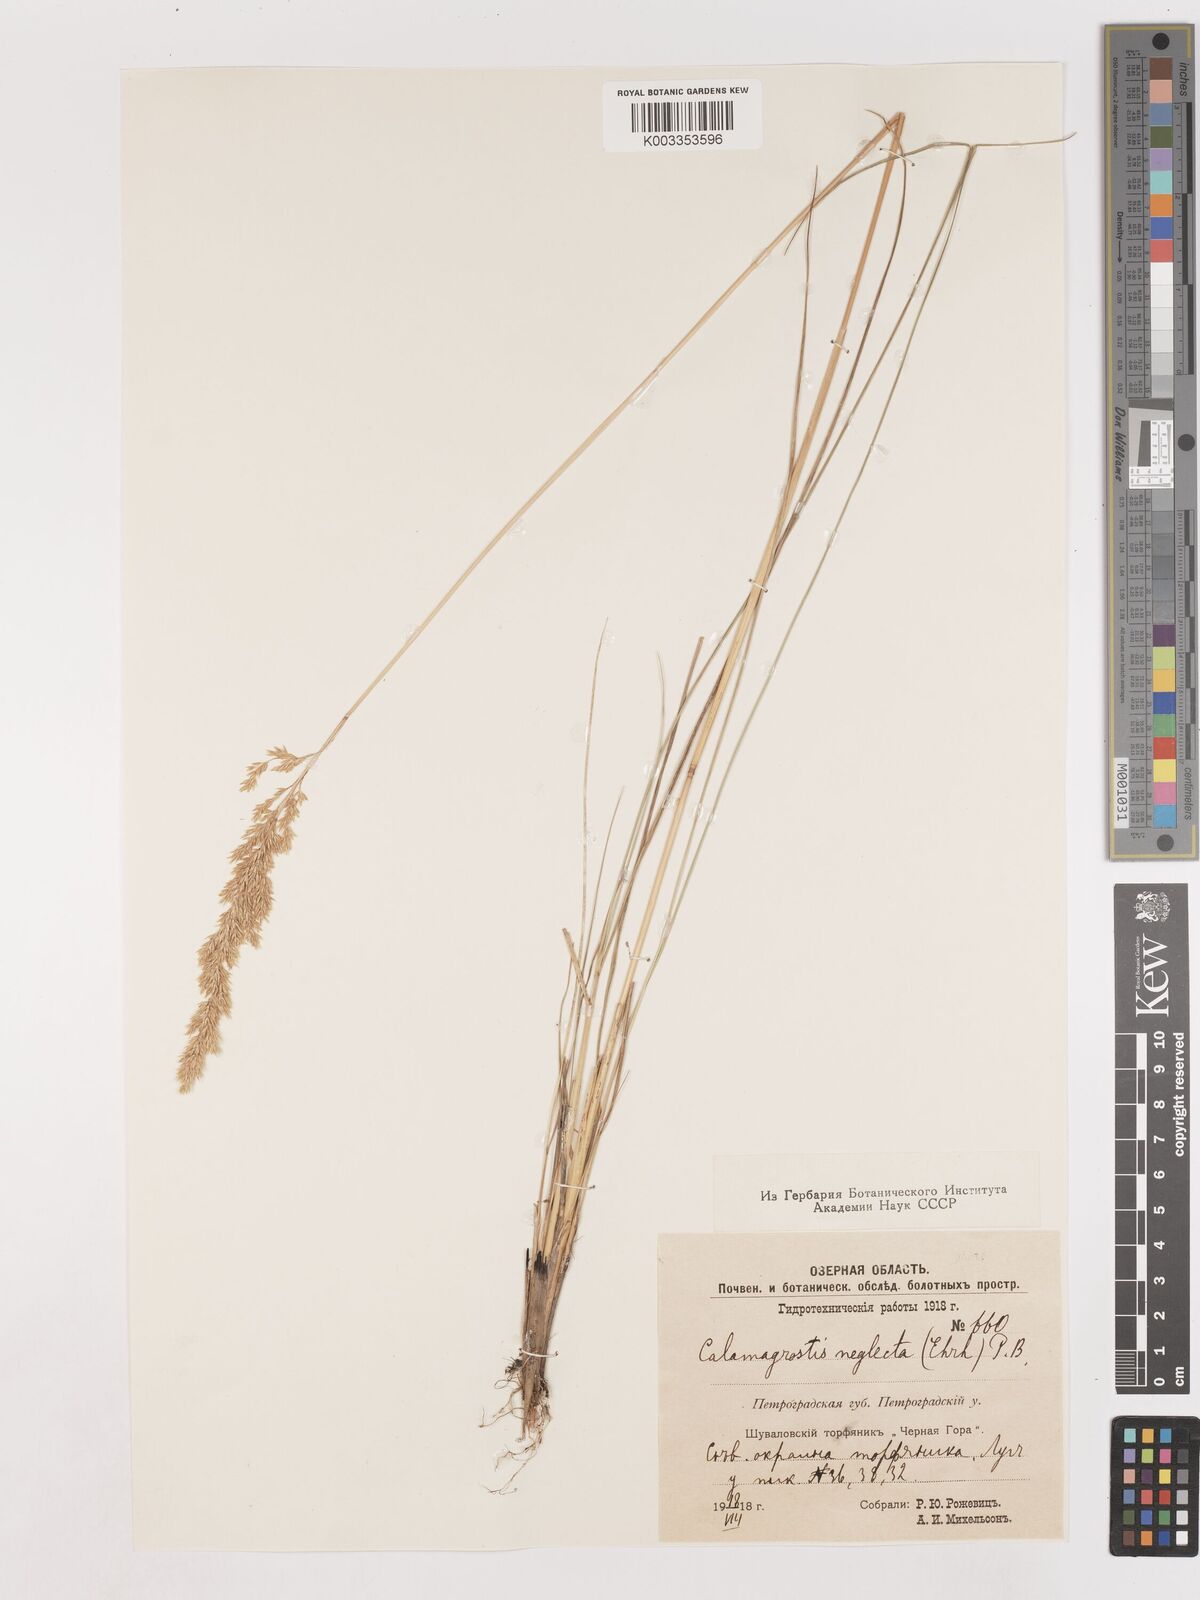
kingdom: Plantae
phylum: Tracheophyta
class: Liliopsida
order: Poales
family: Poaceae
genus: Cinnagrostis
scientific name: Cinnagrostis recta
